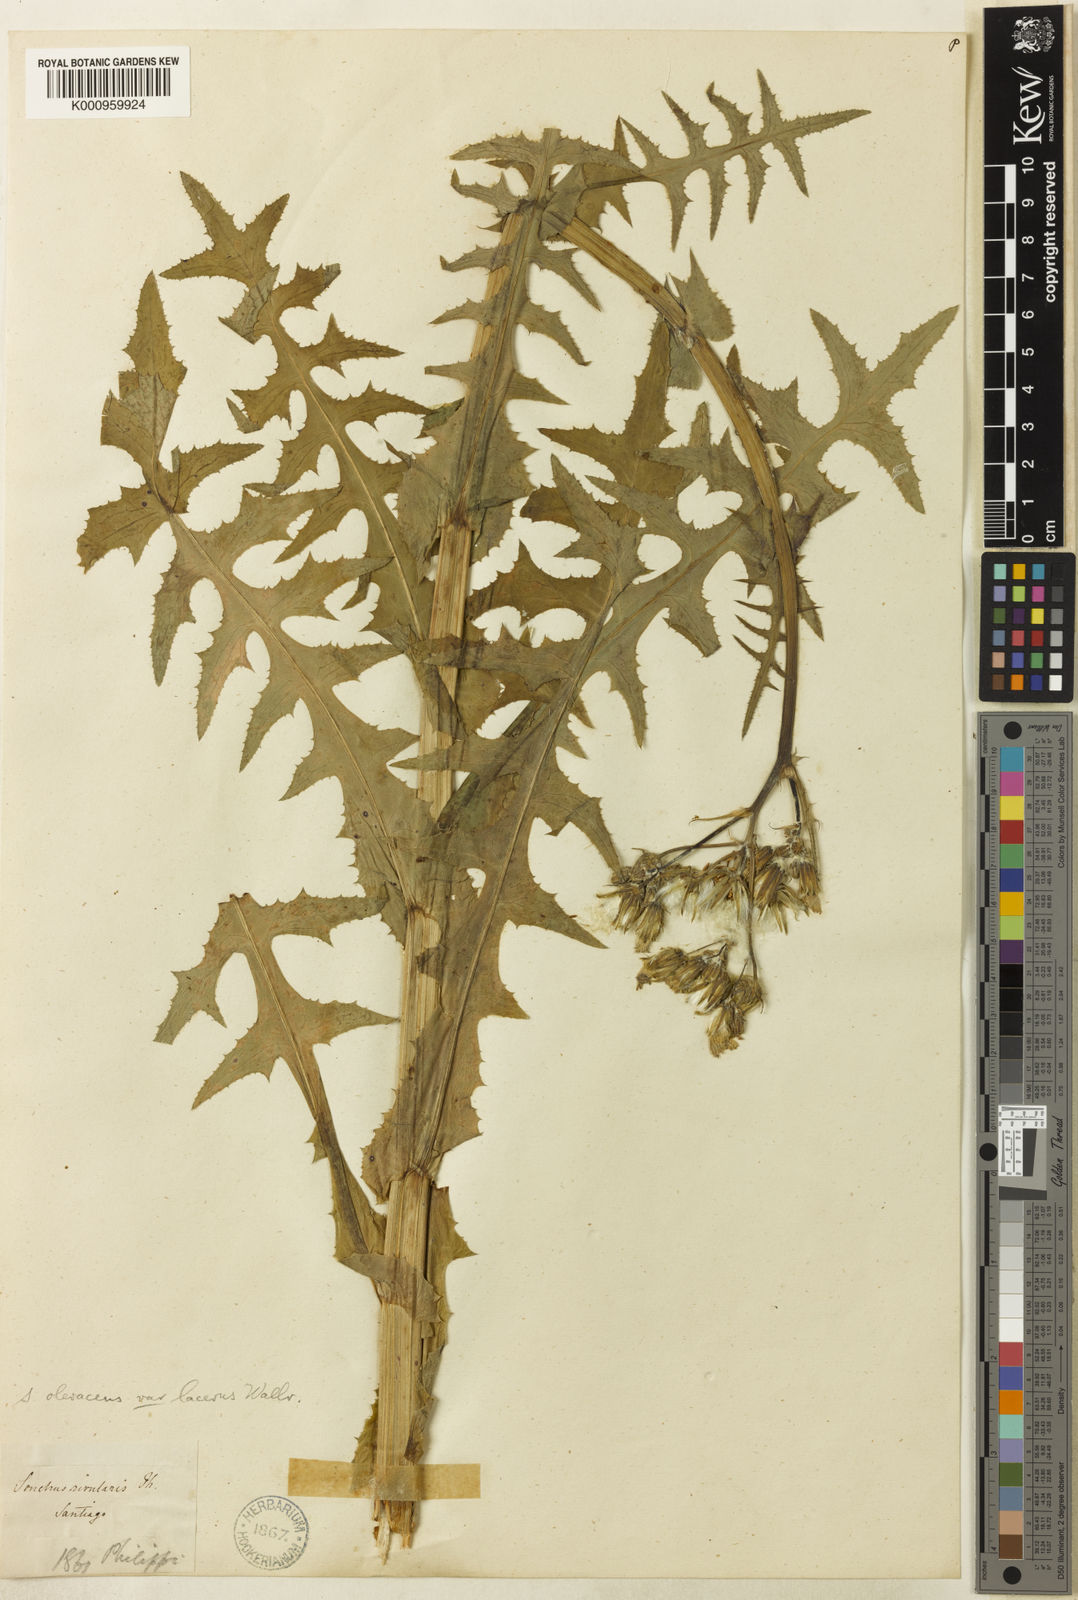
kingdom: Plantae
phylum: Tracheophyta
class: Magnoliopsida
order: Asterales
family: Asteraceae
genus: Sonchus
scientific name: Sonchus oleraceus
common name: Common sowthistle
